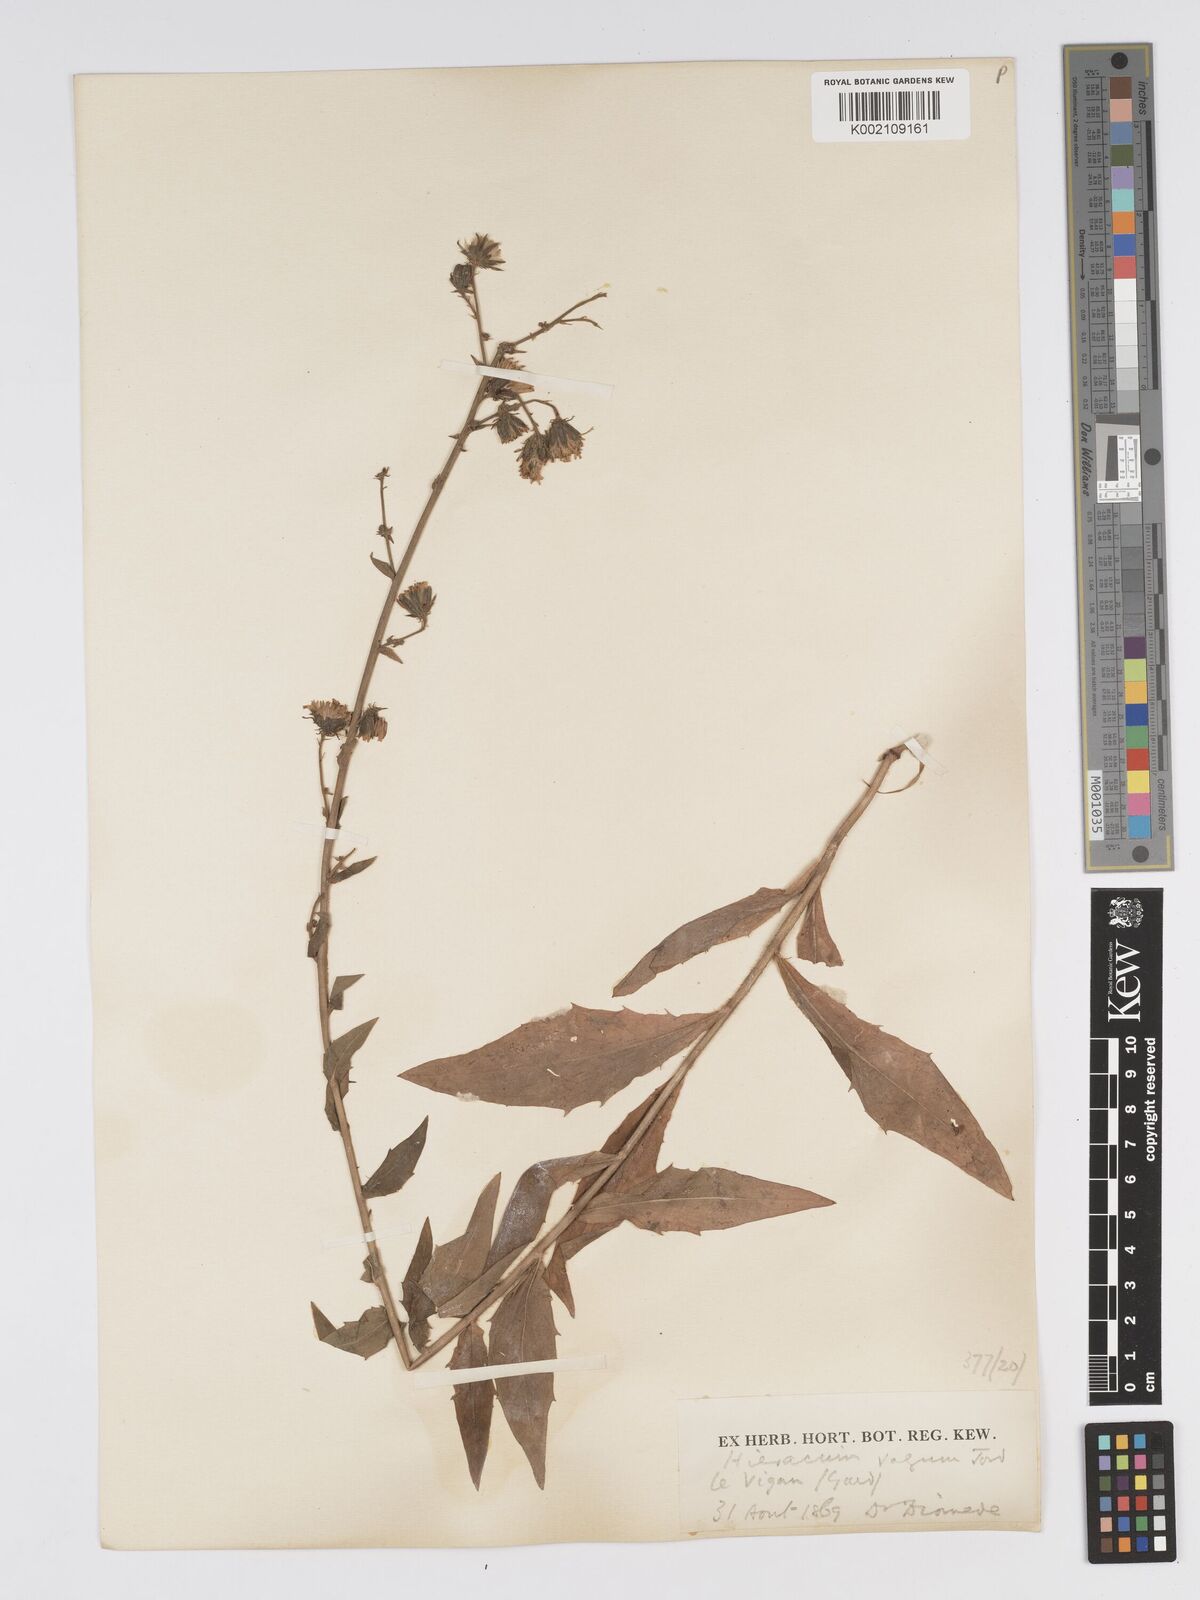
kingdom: Plantae
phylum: Tracheophyta
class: Magnoliopsida
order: Asterales
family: Asteraceae
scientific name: Asteraceae
